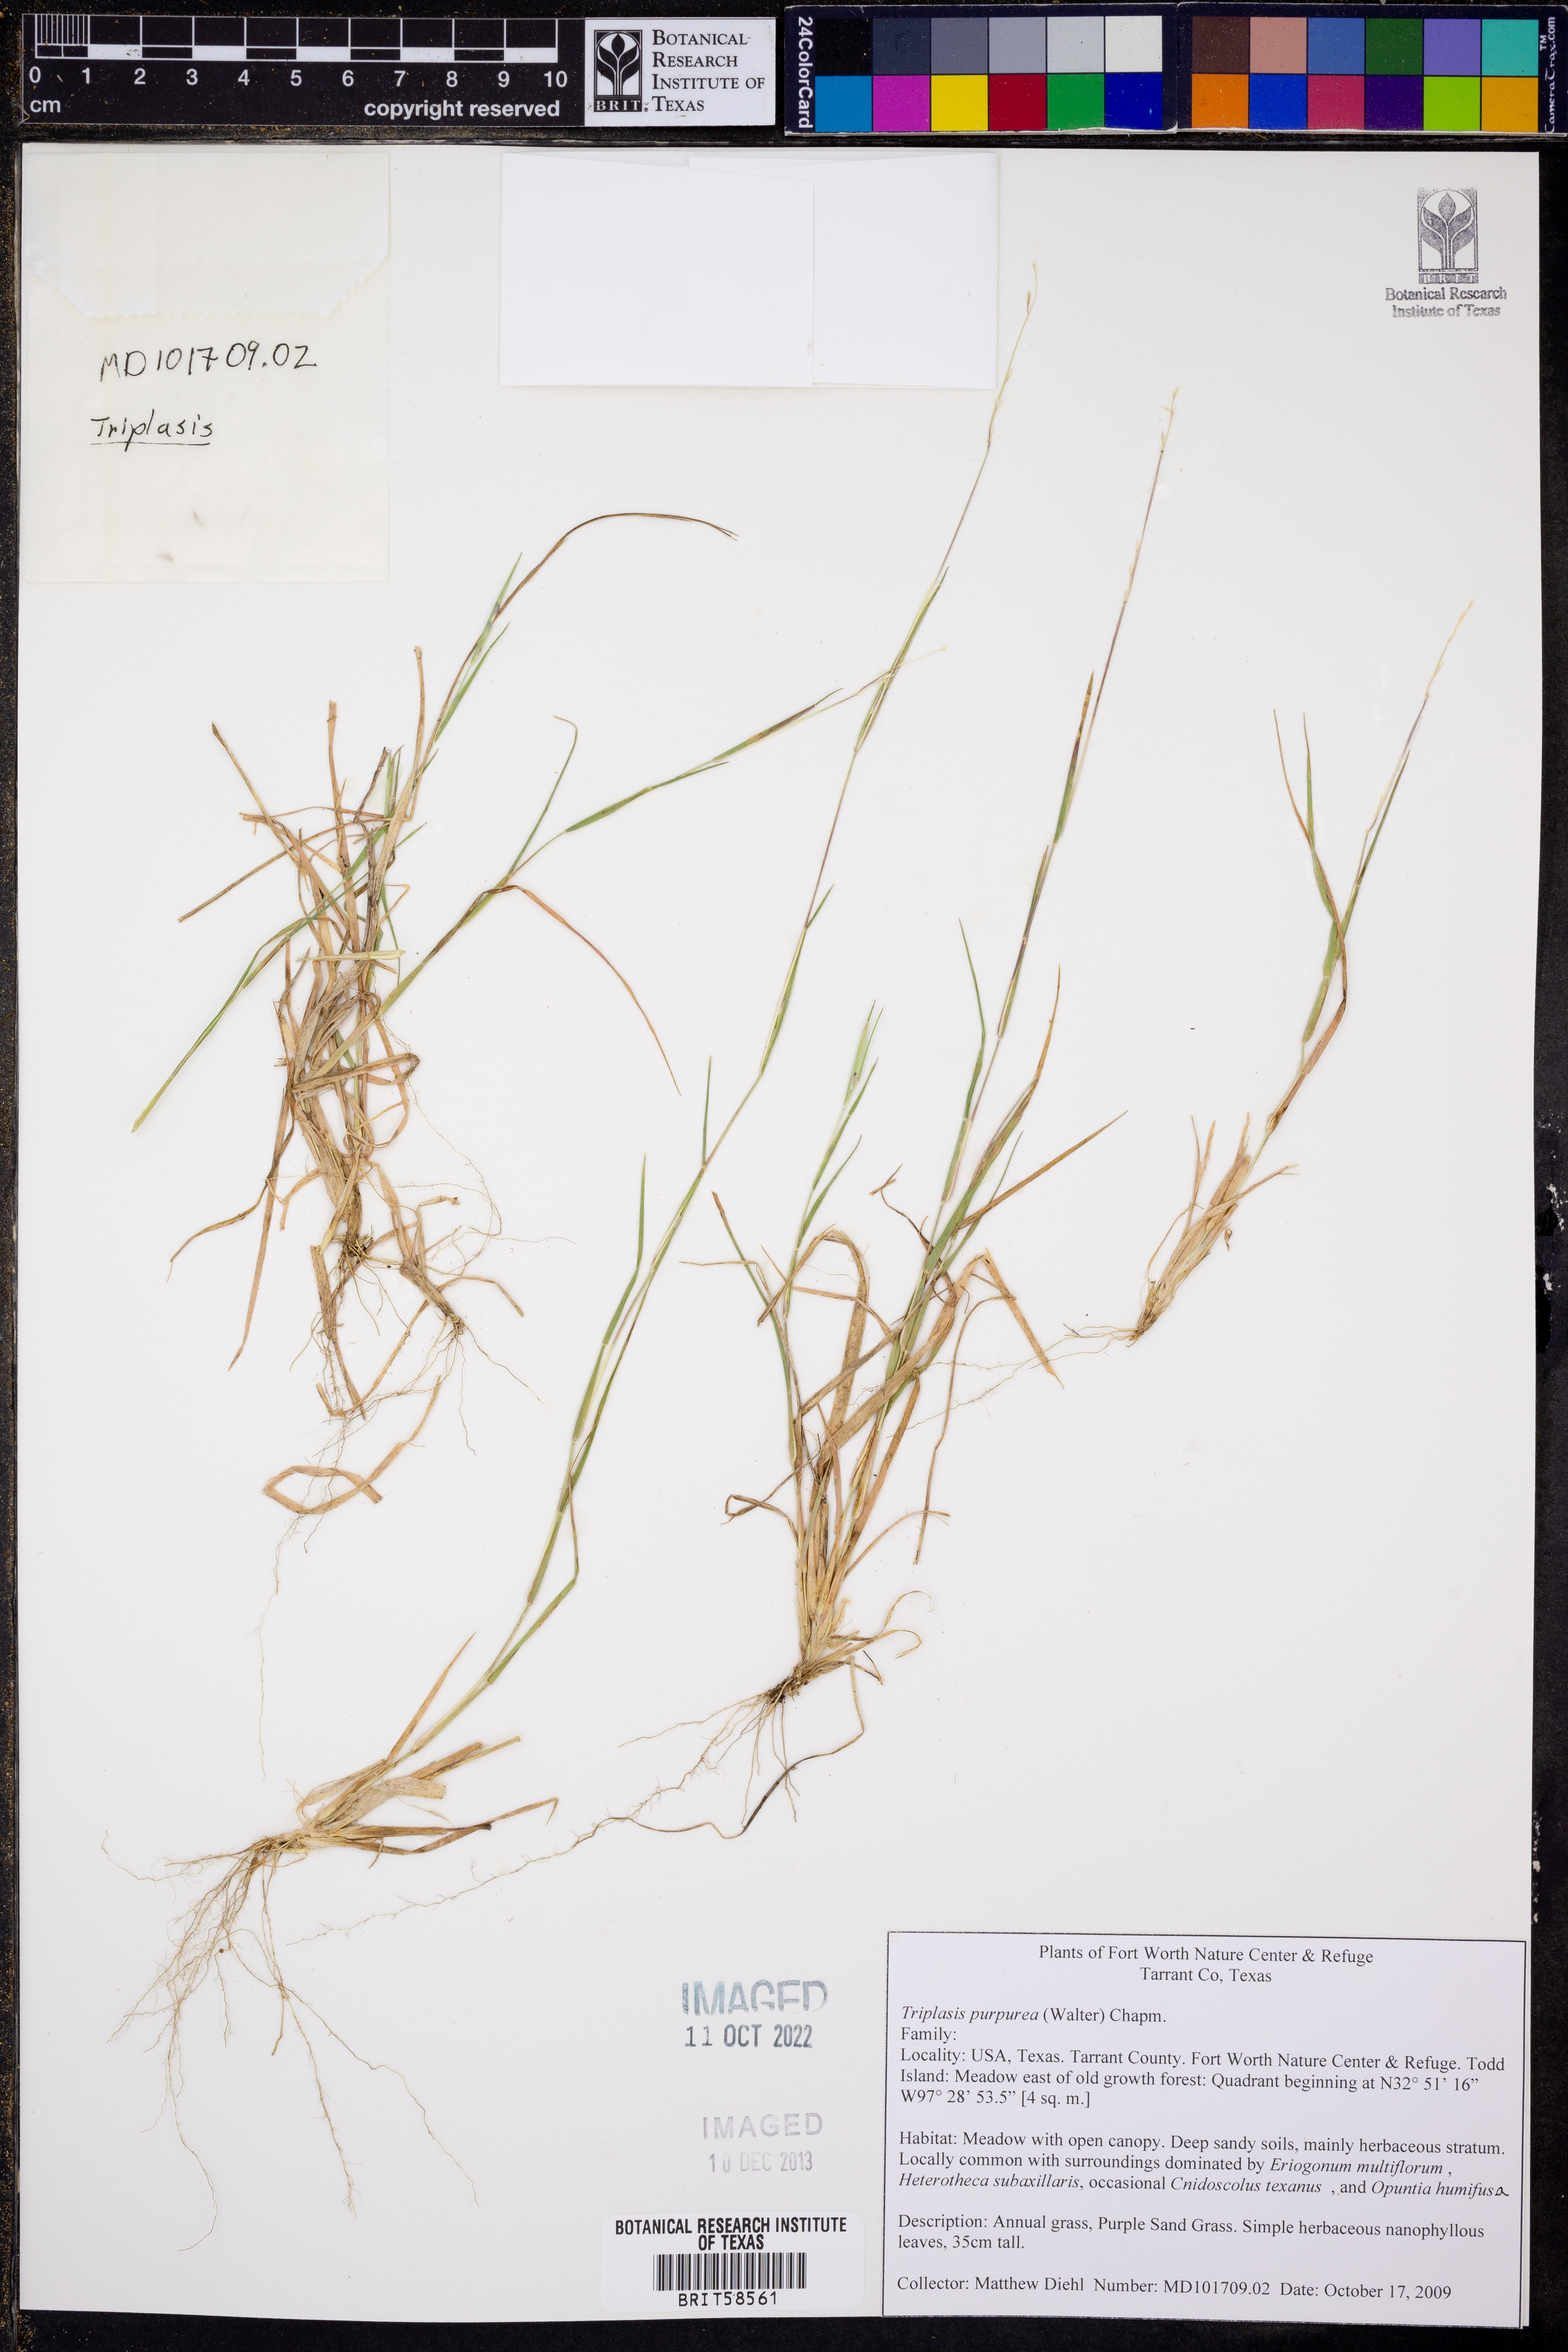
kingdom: Plantae
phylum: Tracheophyta
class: Liliopsida
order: Poales
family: Poaceae
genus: Triplasis
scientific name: Triplasis purpurea
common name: Purple sand grass
